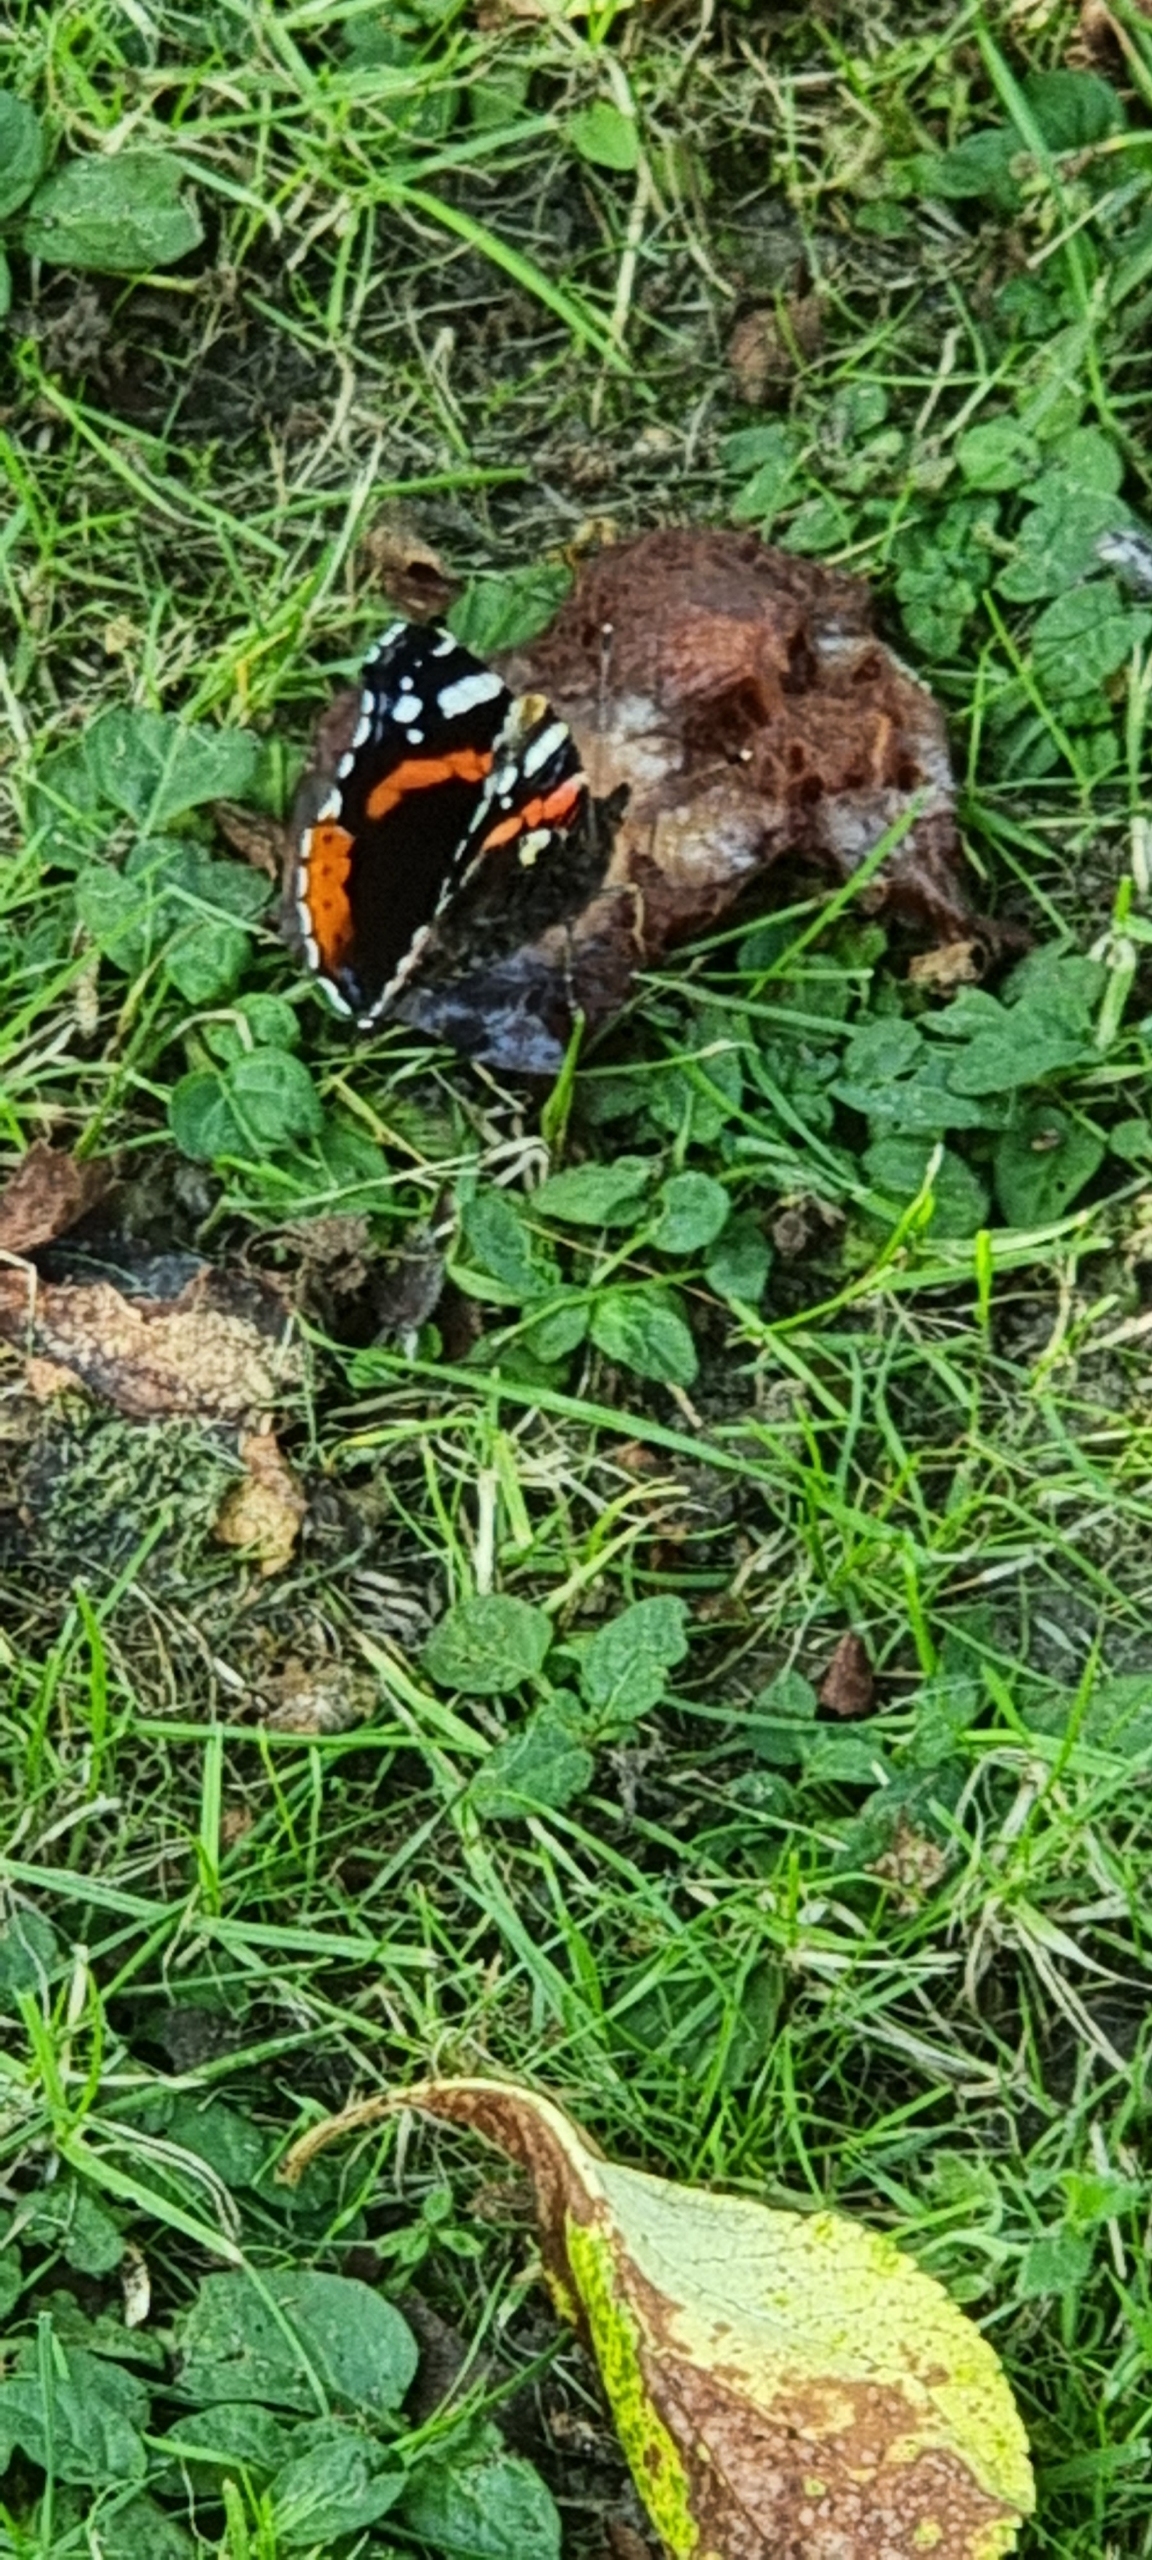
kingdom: Animalia
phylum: Arthropoda
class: Insecta
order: Lepidoptera
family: Nymphalidae
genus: Vanessa
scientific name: Vanessa atalanta
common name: Admiral
